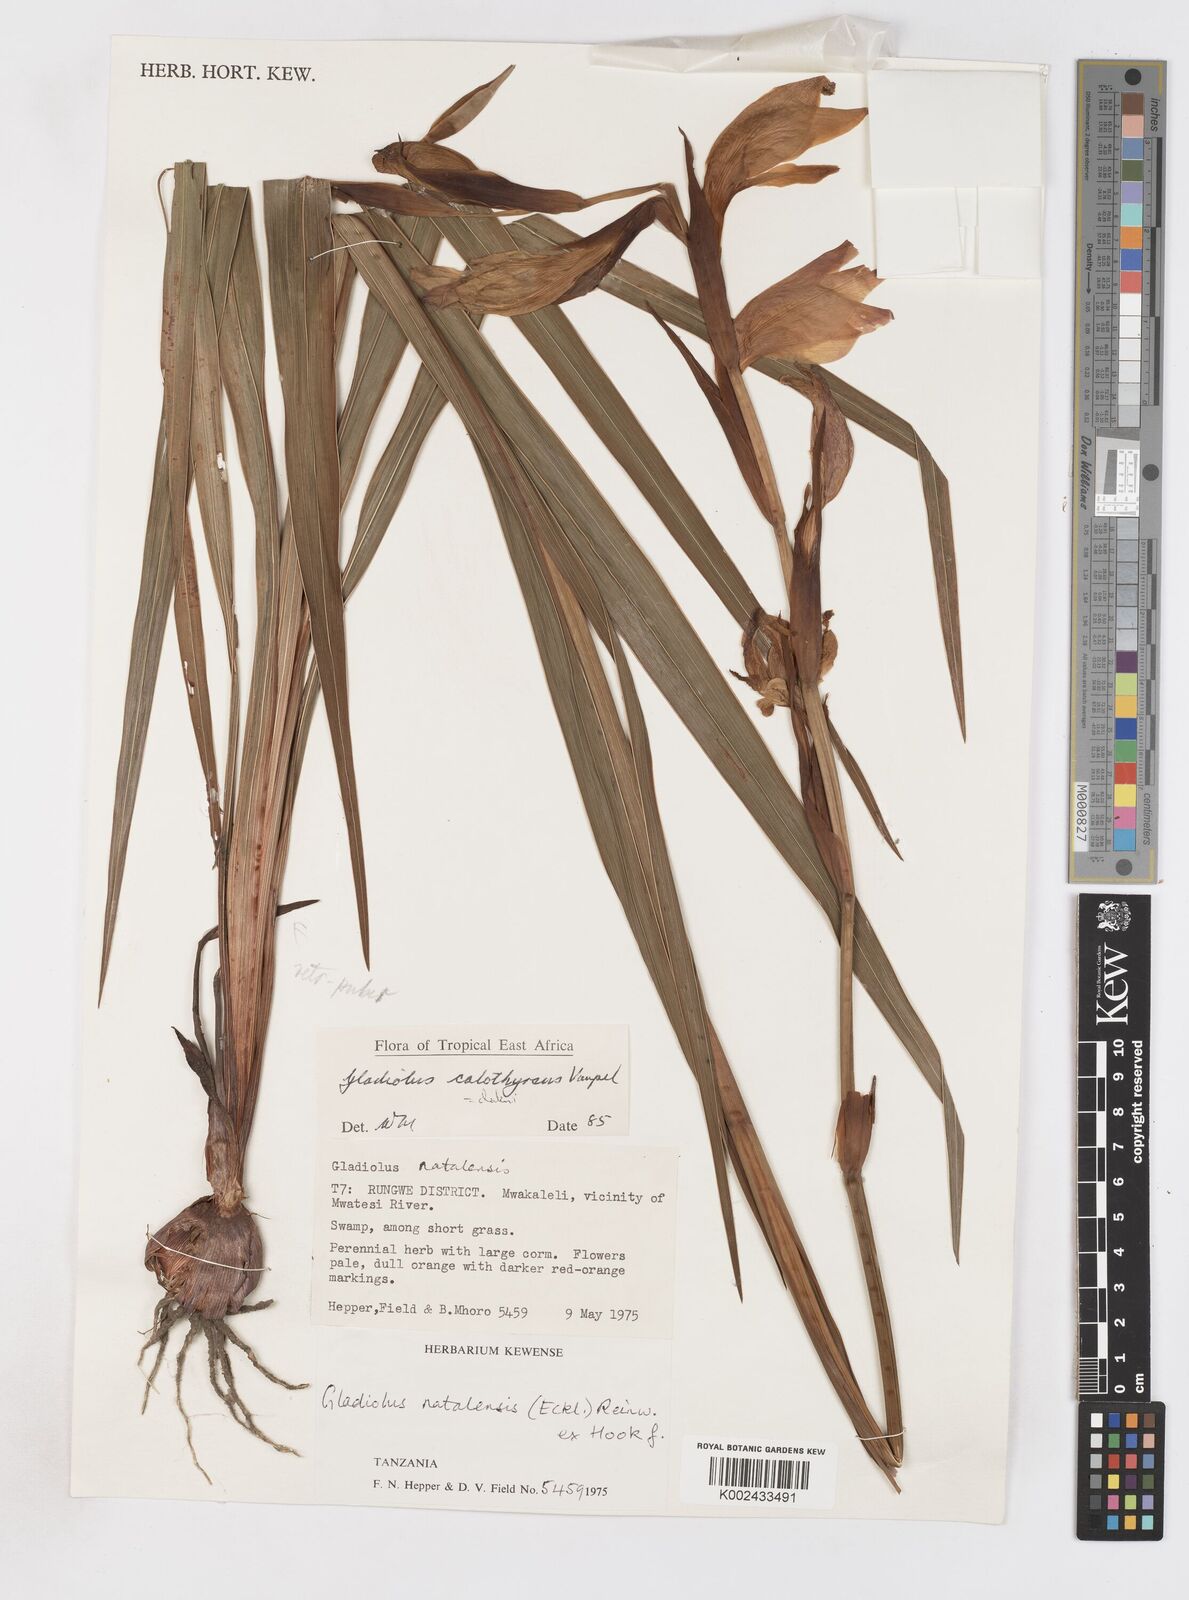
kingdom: Plantae
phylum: Tracheophyta
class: Liliopsida
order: Asparagales
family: Iridaceae
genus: Gladiolus
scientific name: Gladiolus dalenii
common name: Cornflag
